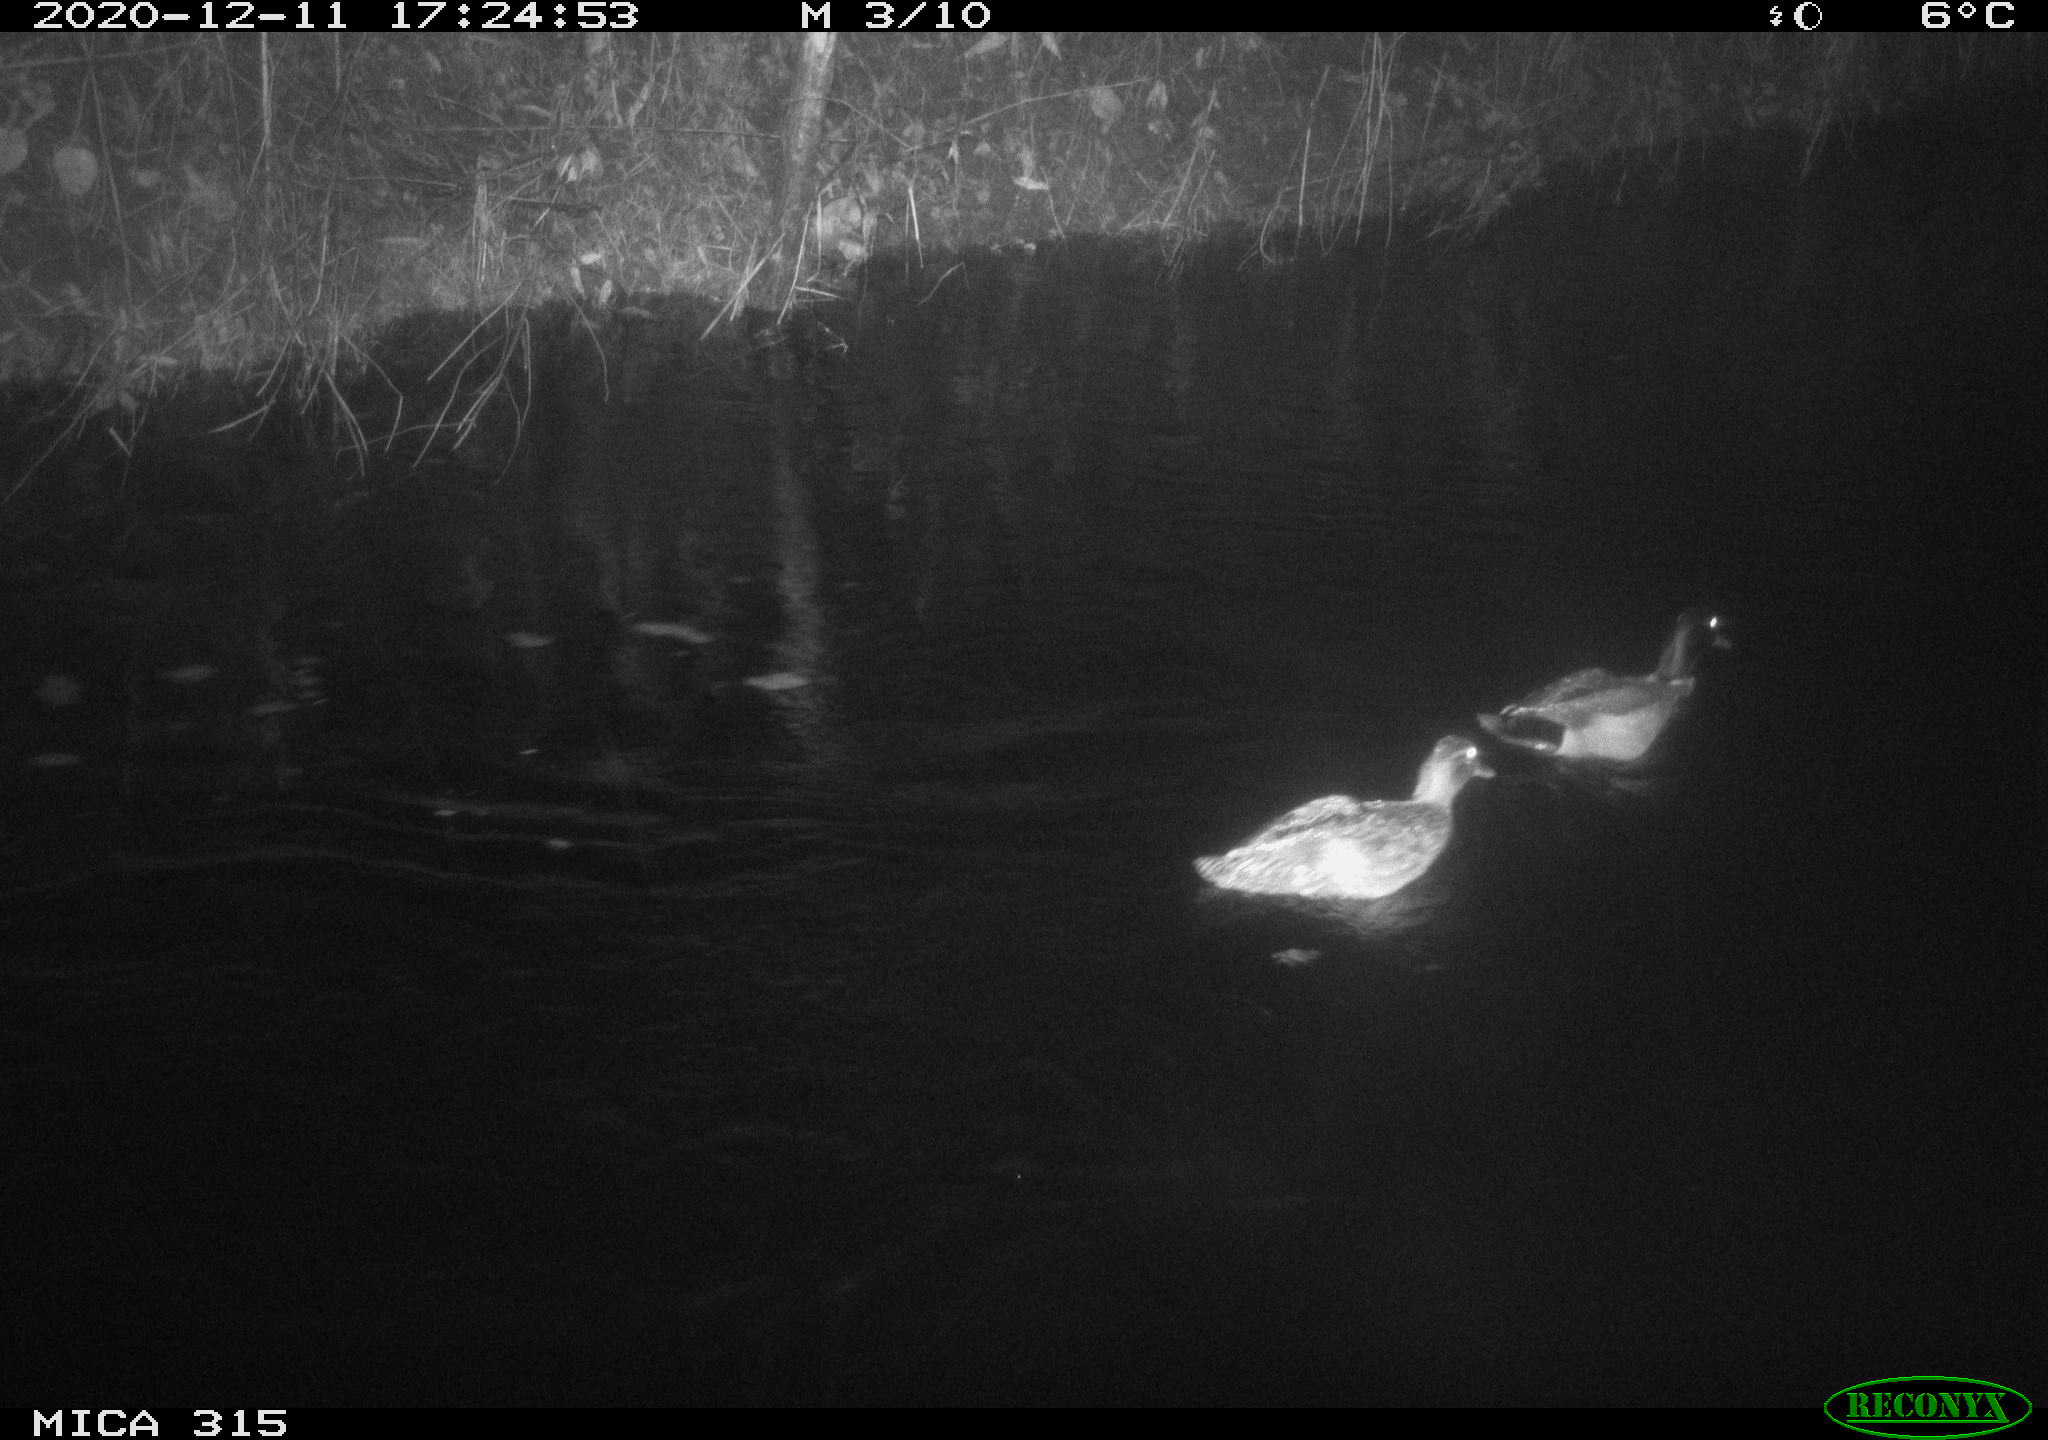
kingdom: Animalia
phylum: Chordata
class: Aves
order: Anseriformes
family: Anatidae
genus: Anas
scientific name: Anas platyrhynchos
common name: Mallard
